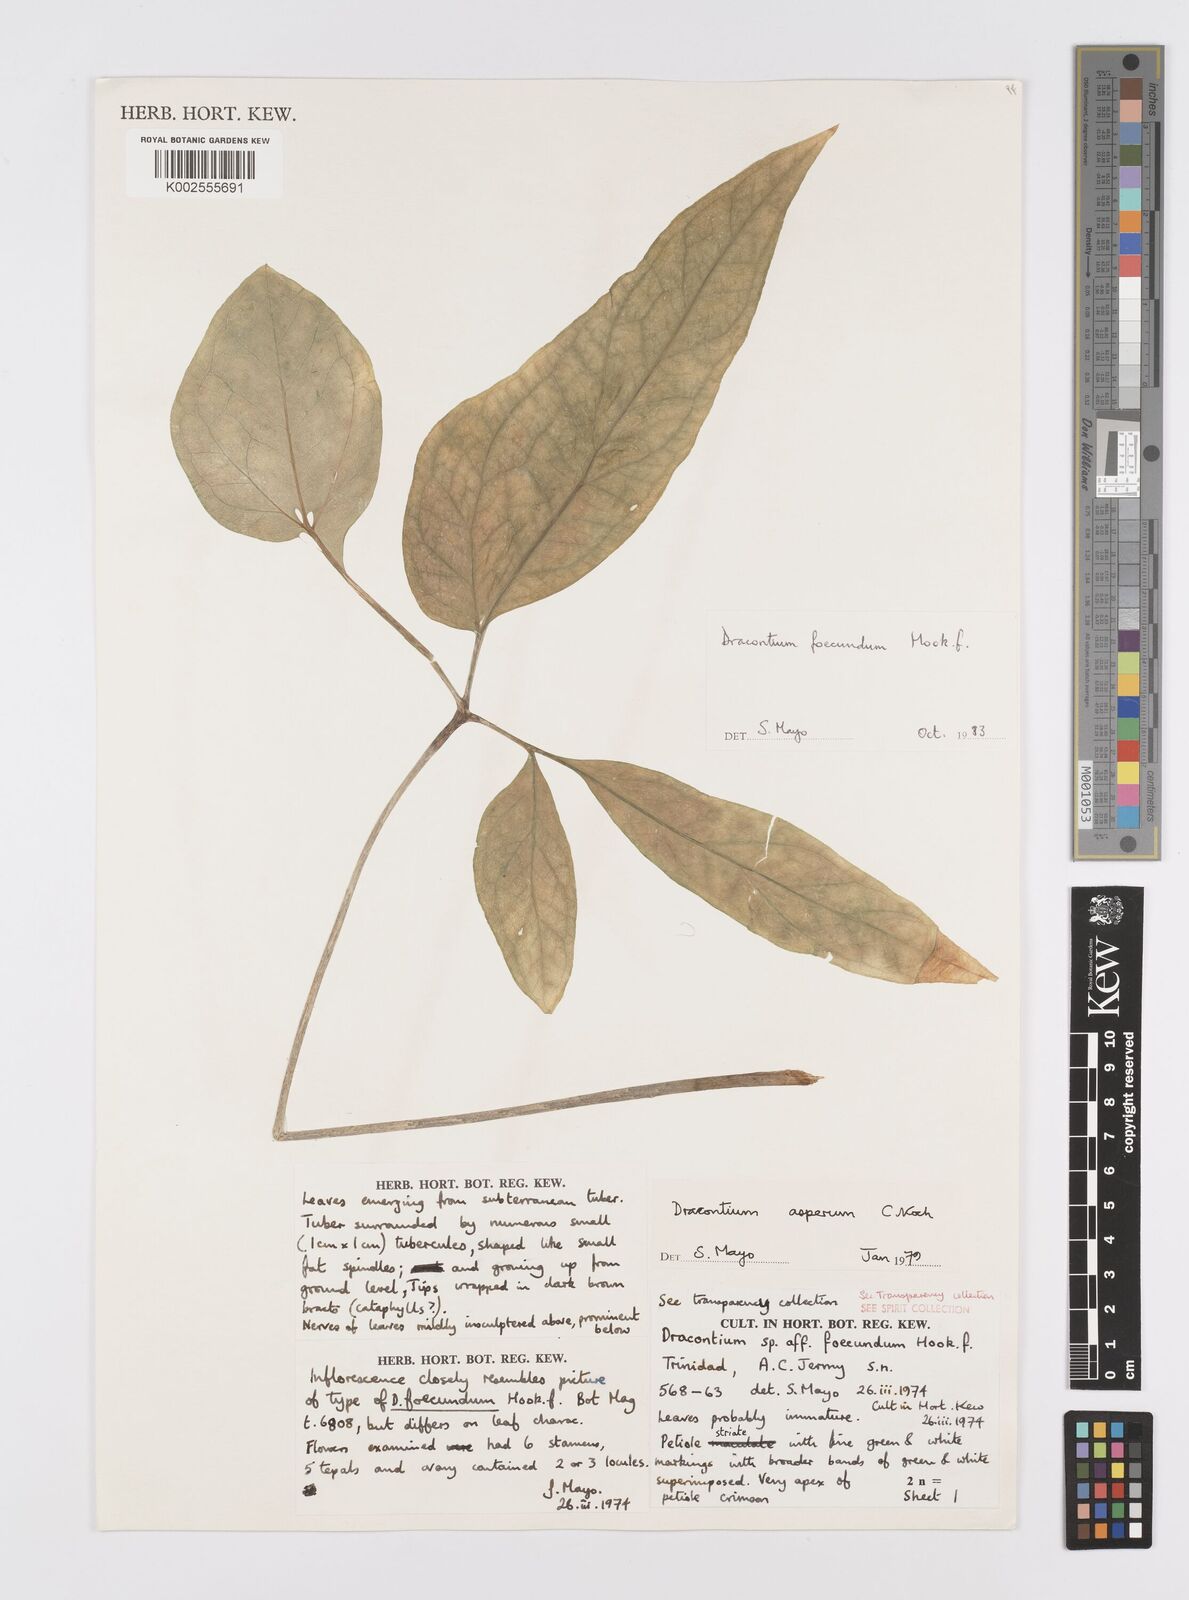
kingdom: Plantae
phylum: Tracheophyta
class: Liliopsida
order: Alismatales
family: Araceae
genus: Dracontium
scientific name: Dracontium asperum
